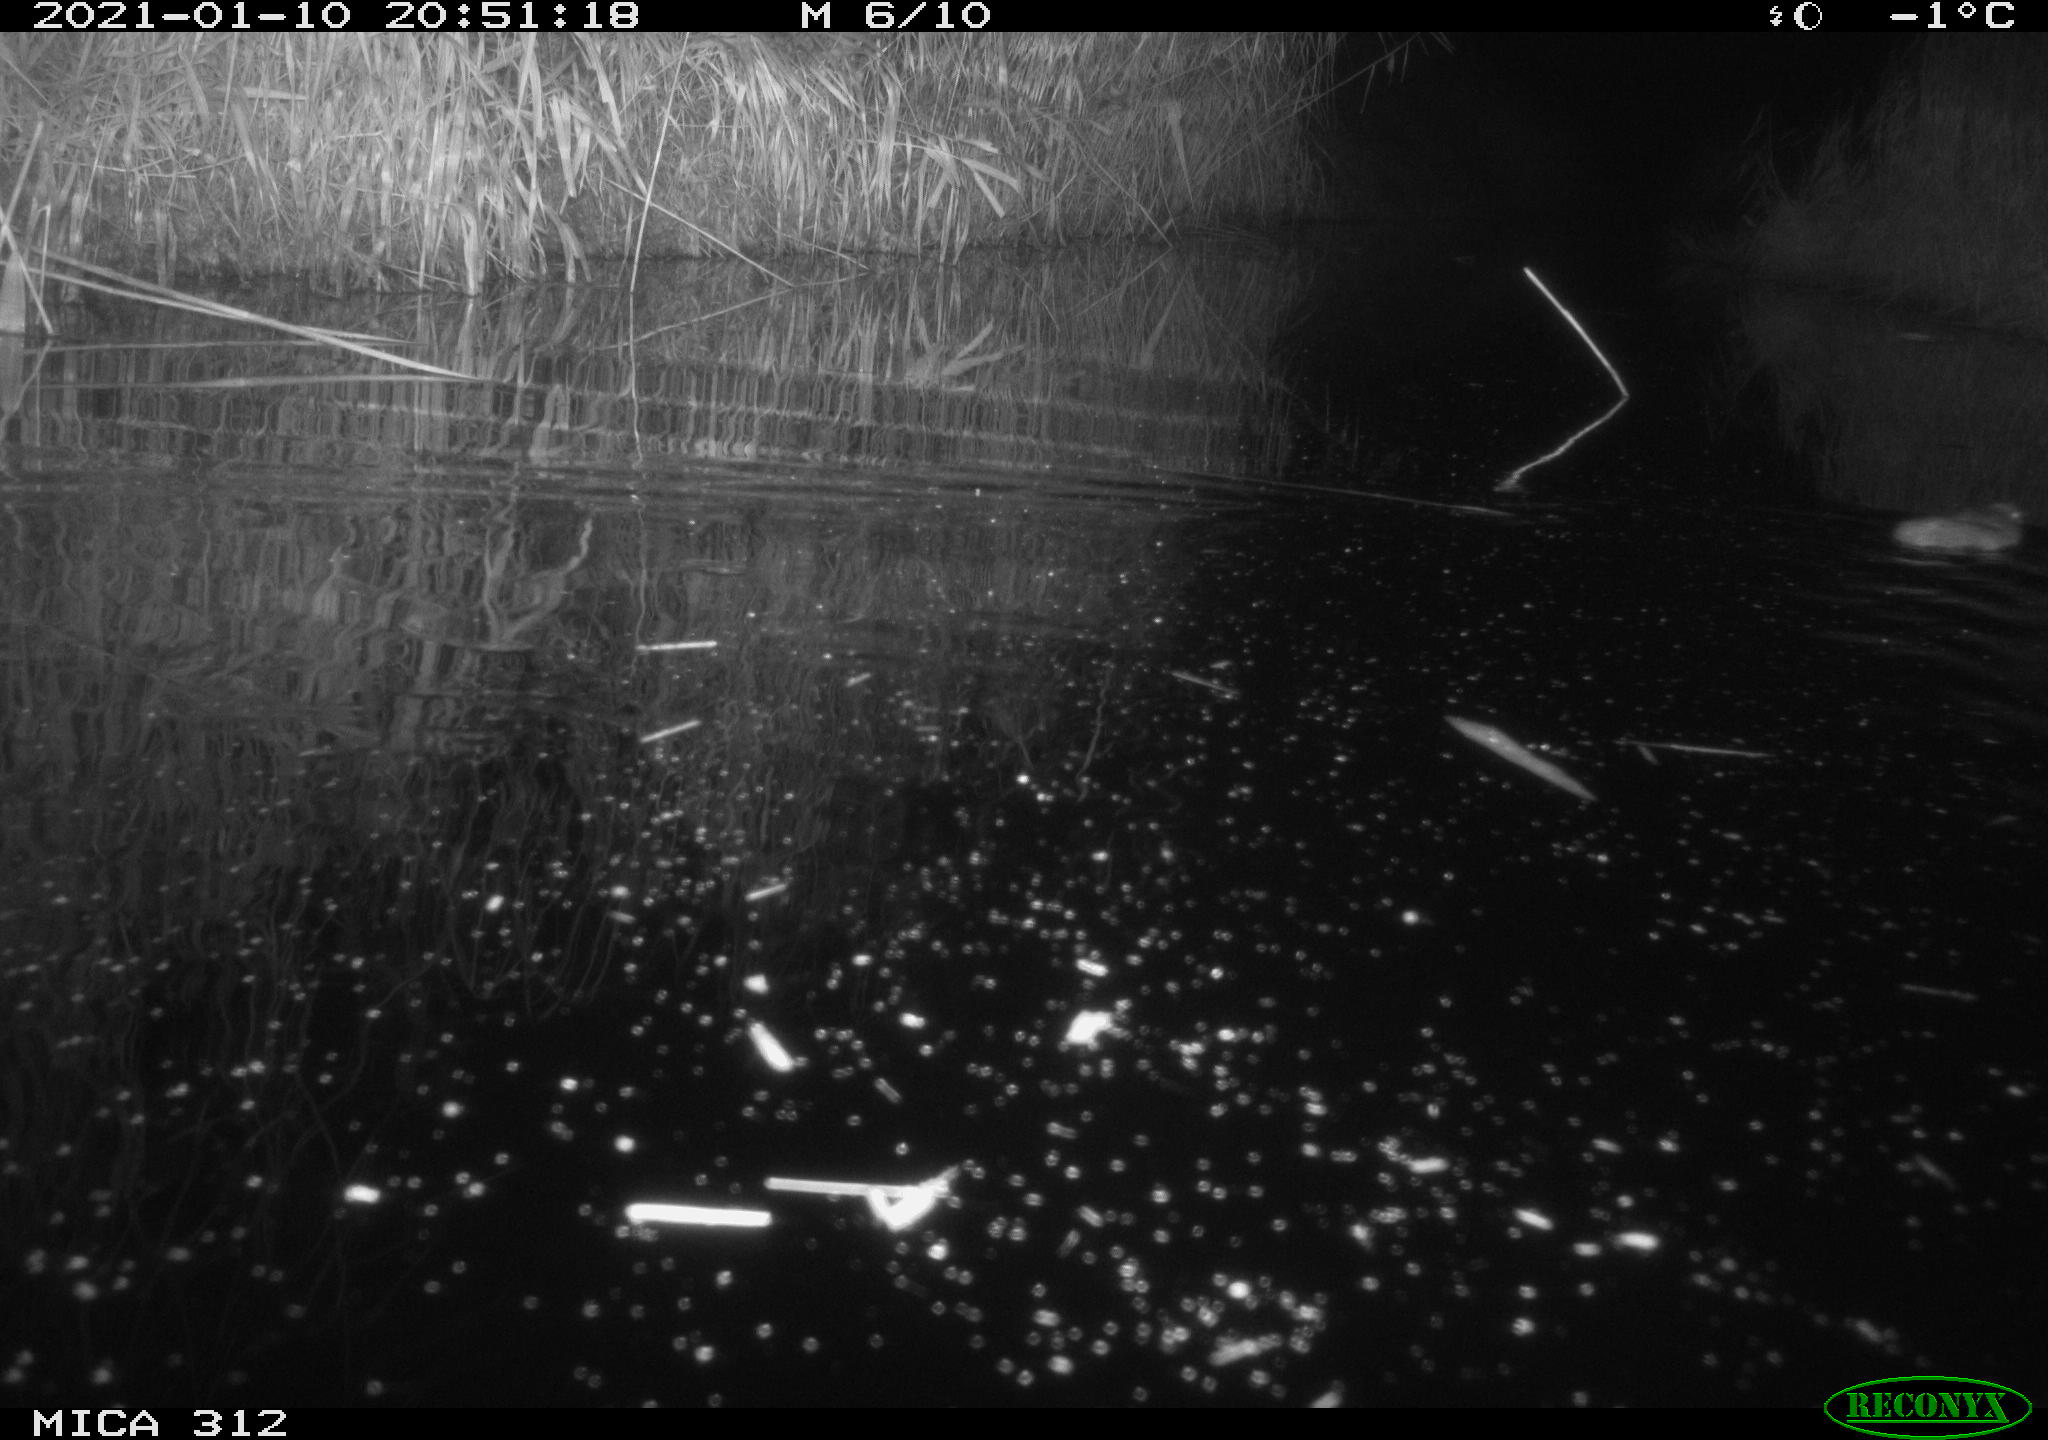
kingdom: Animalia
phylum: Chordata
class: Mammalia
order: Rodentia
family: Muridae
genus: Rattus
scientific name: Rattus norvegicus
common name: Brown rat
